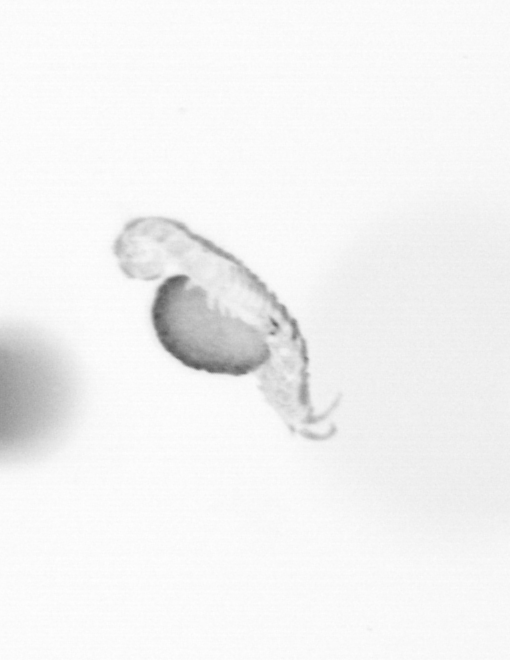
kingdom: Animalia
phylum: Annelida
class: Polychaeta
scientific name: Polychaeta
